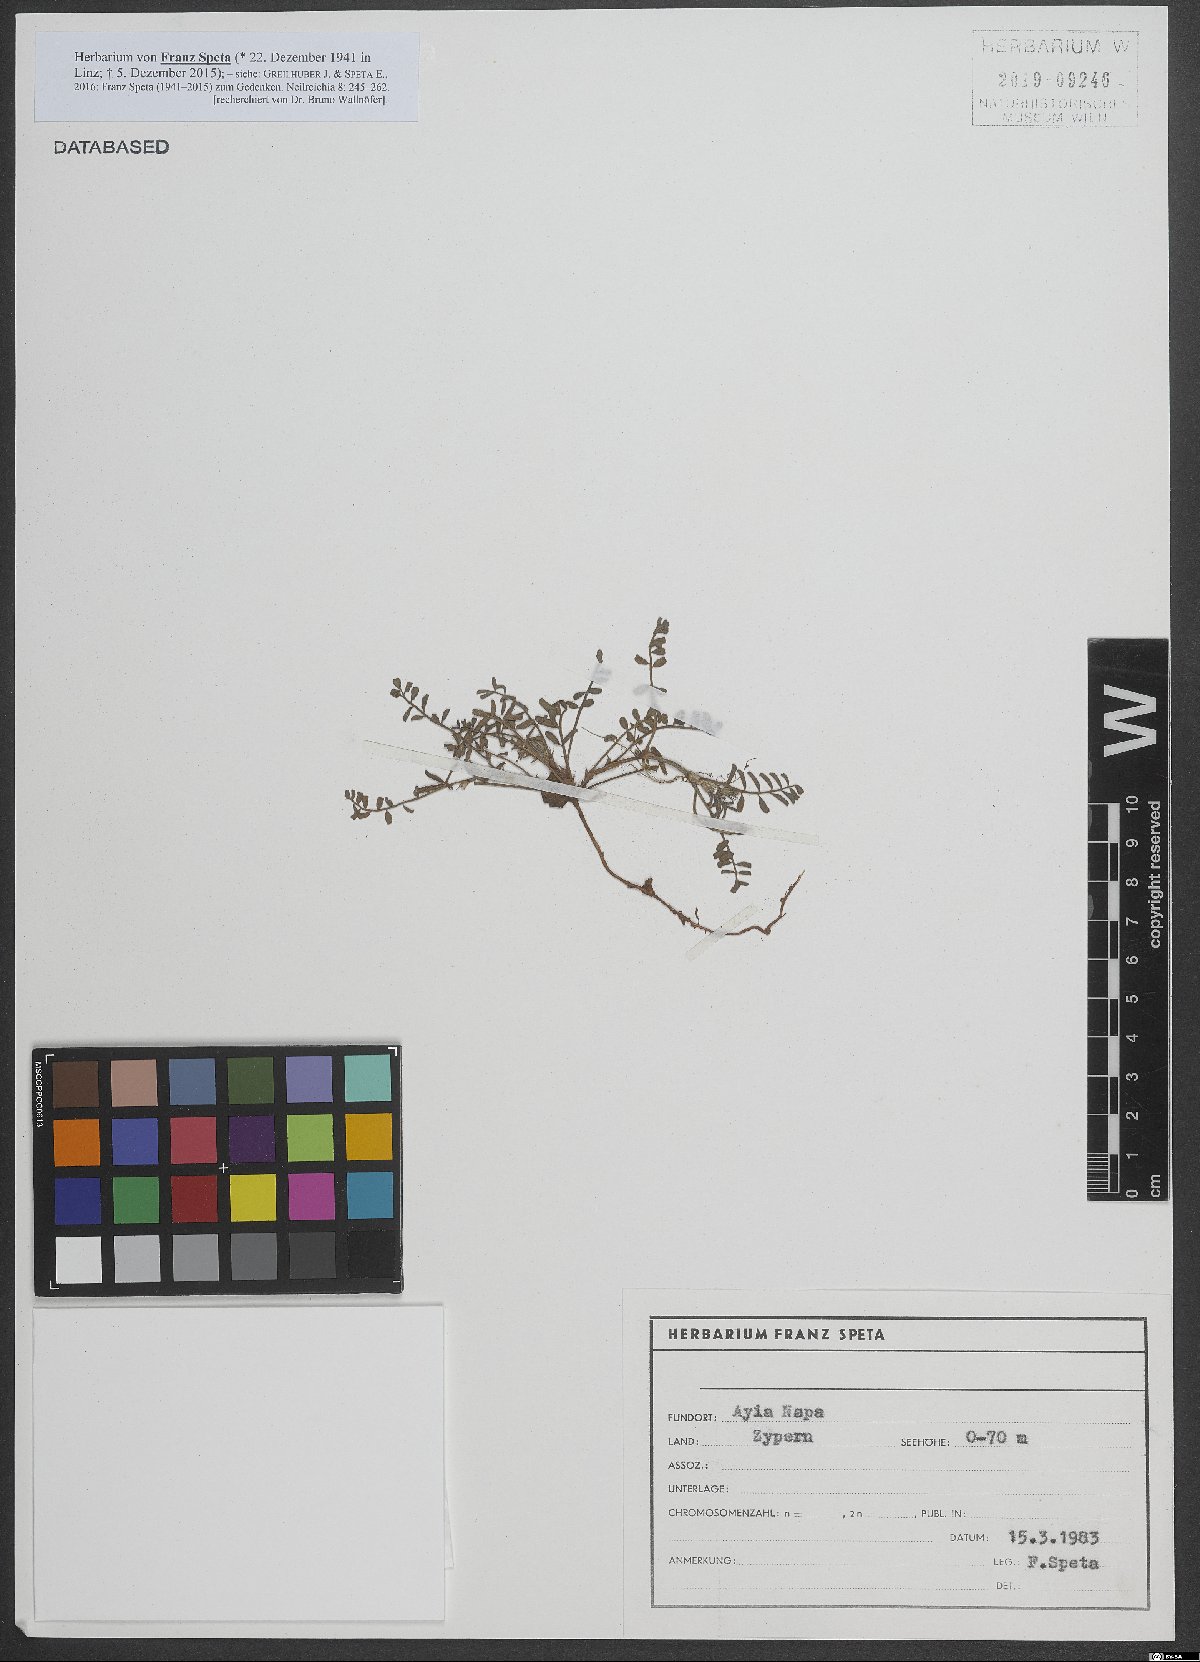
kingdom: Plantae
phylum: Tracheophyta
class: Magnoliopsida
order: Fabales
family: Fabaceae
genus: Onobrychis
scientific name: Onobrychis
